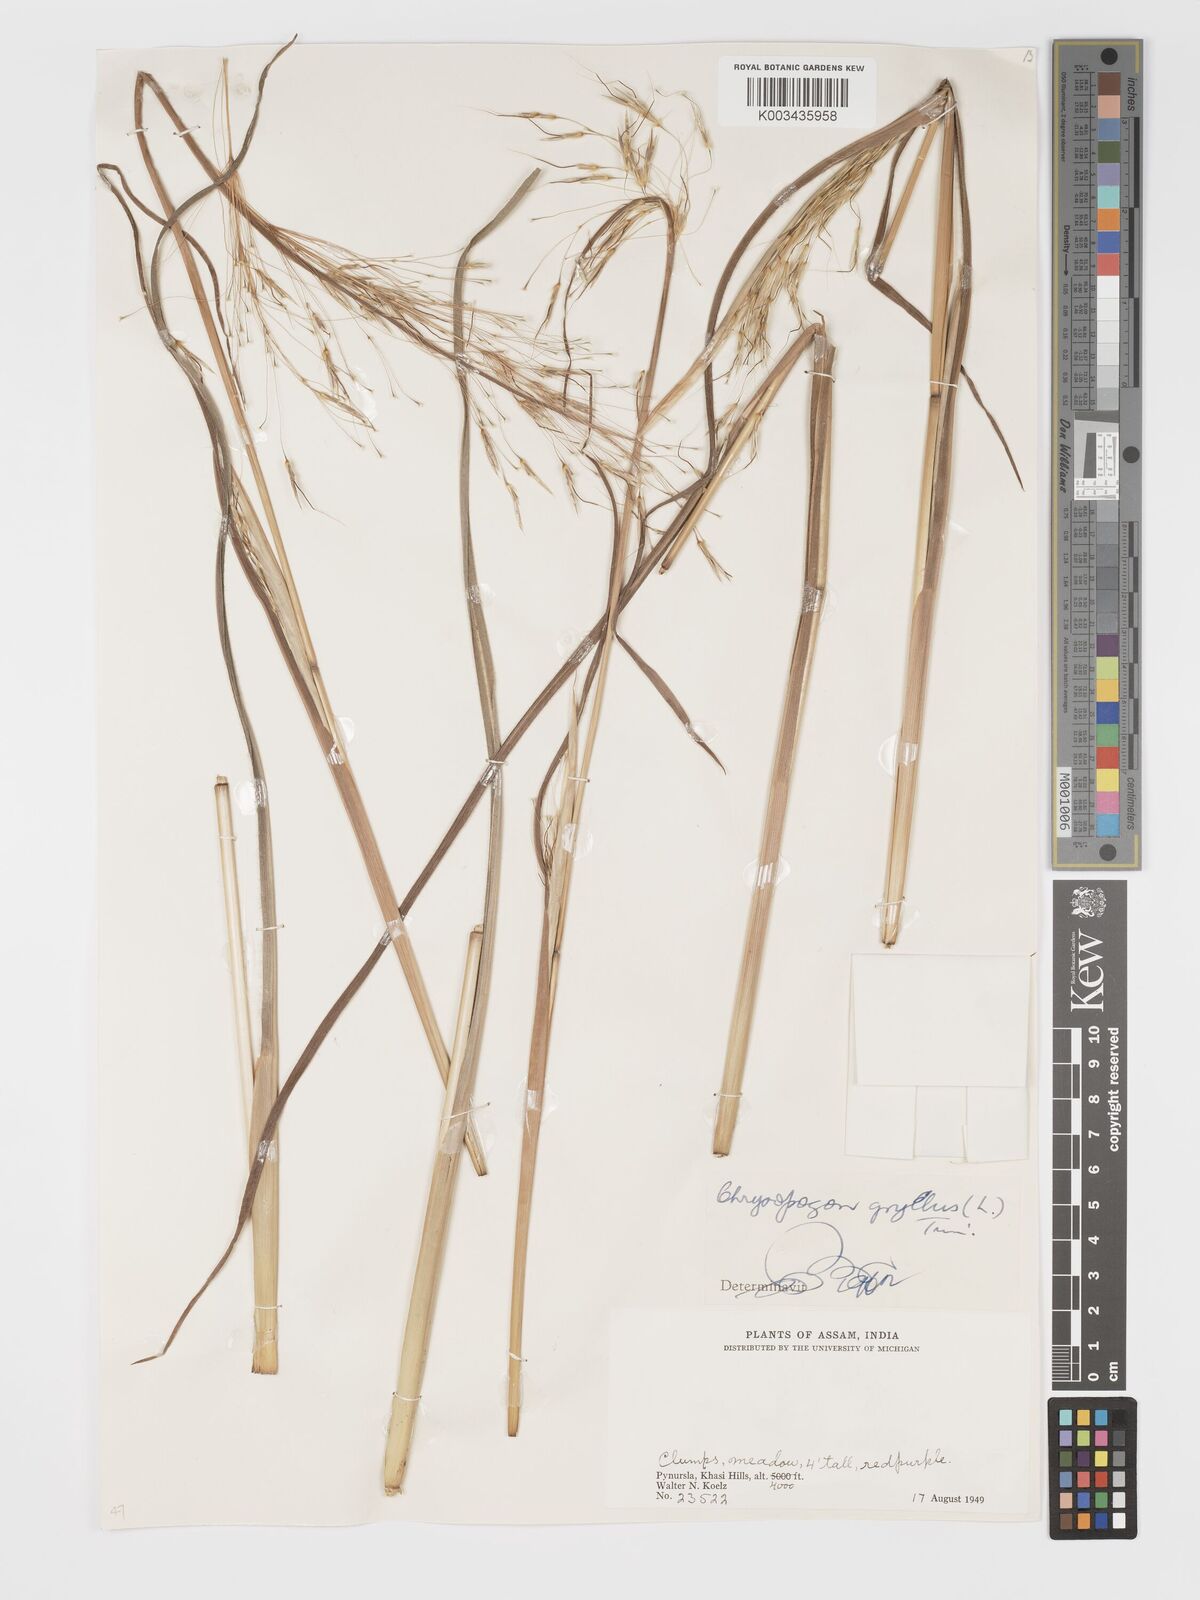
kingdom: Plantae
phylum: Tracheophyta
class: Liliopsida
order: Poales
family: Poaceae
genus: Chrysopogon
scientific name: Chrysopogon gryllus
